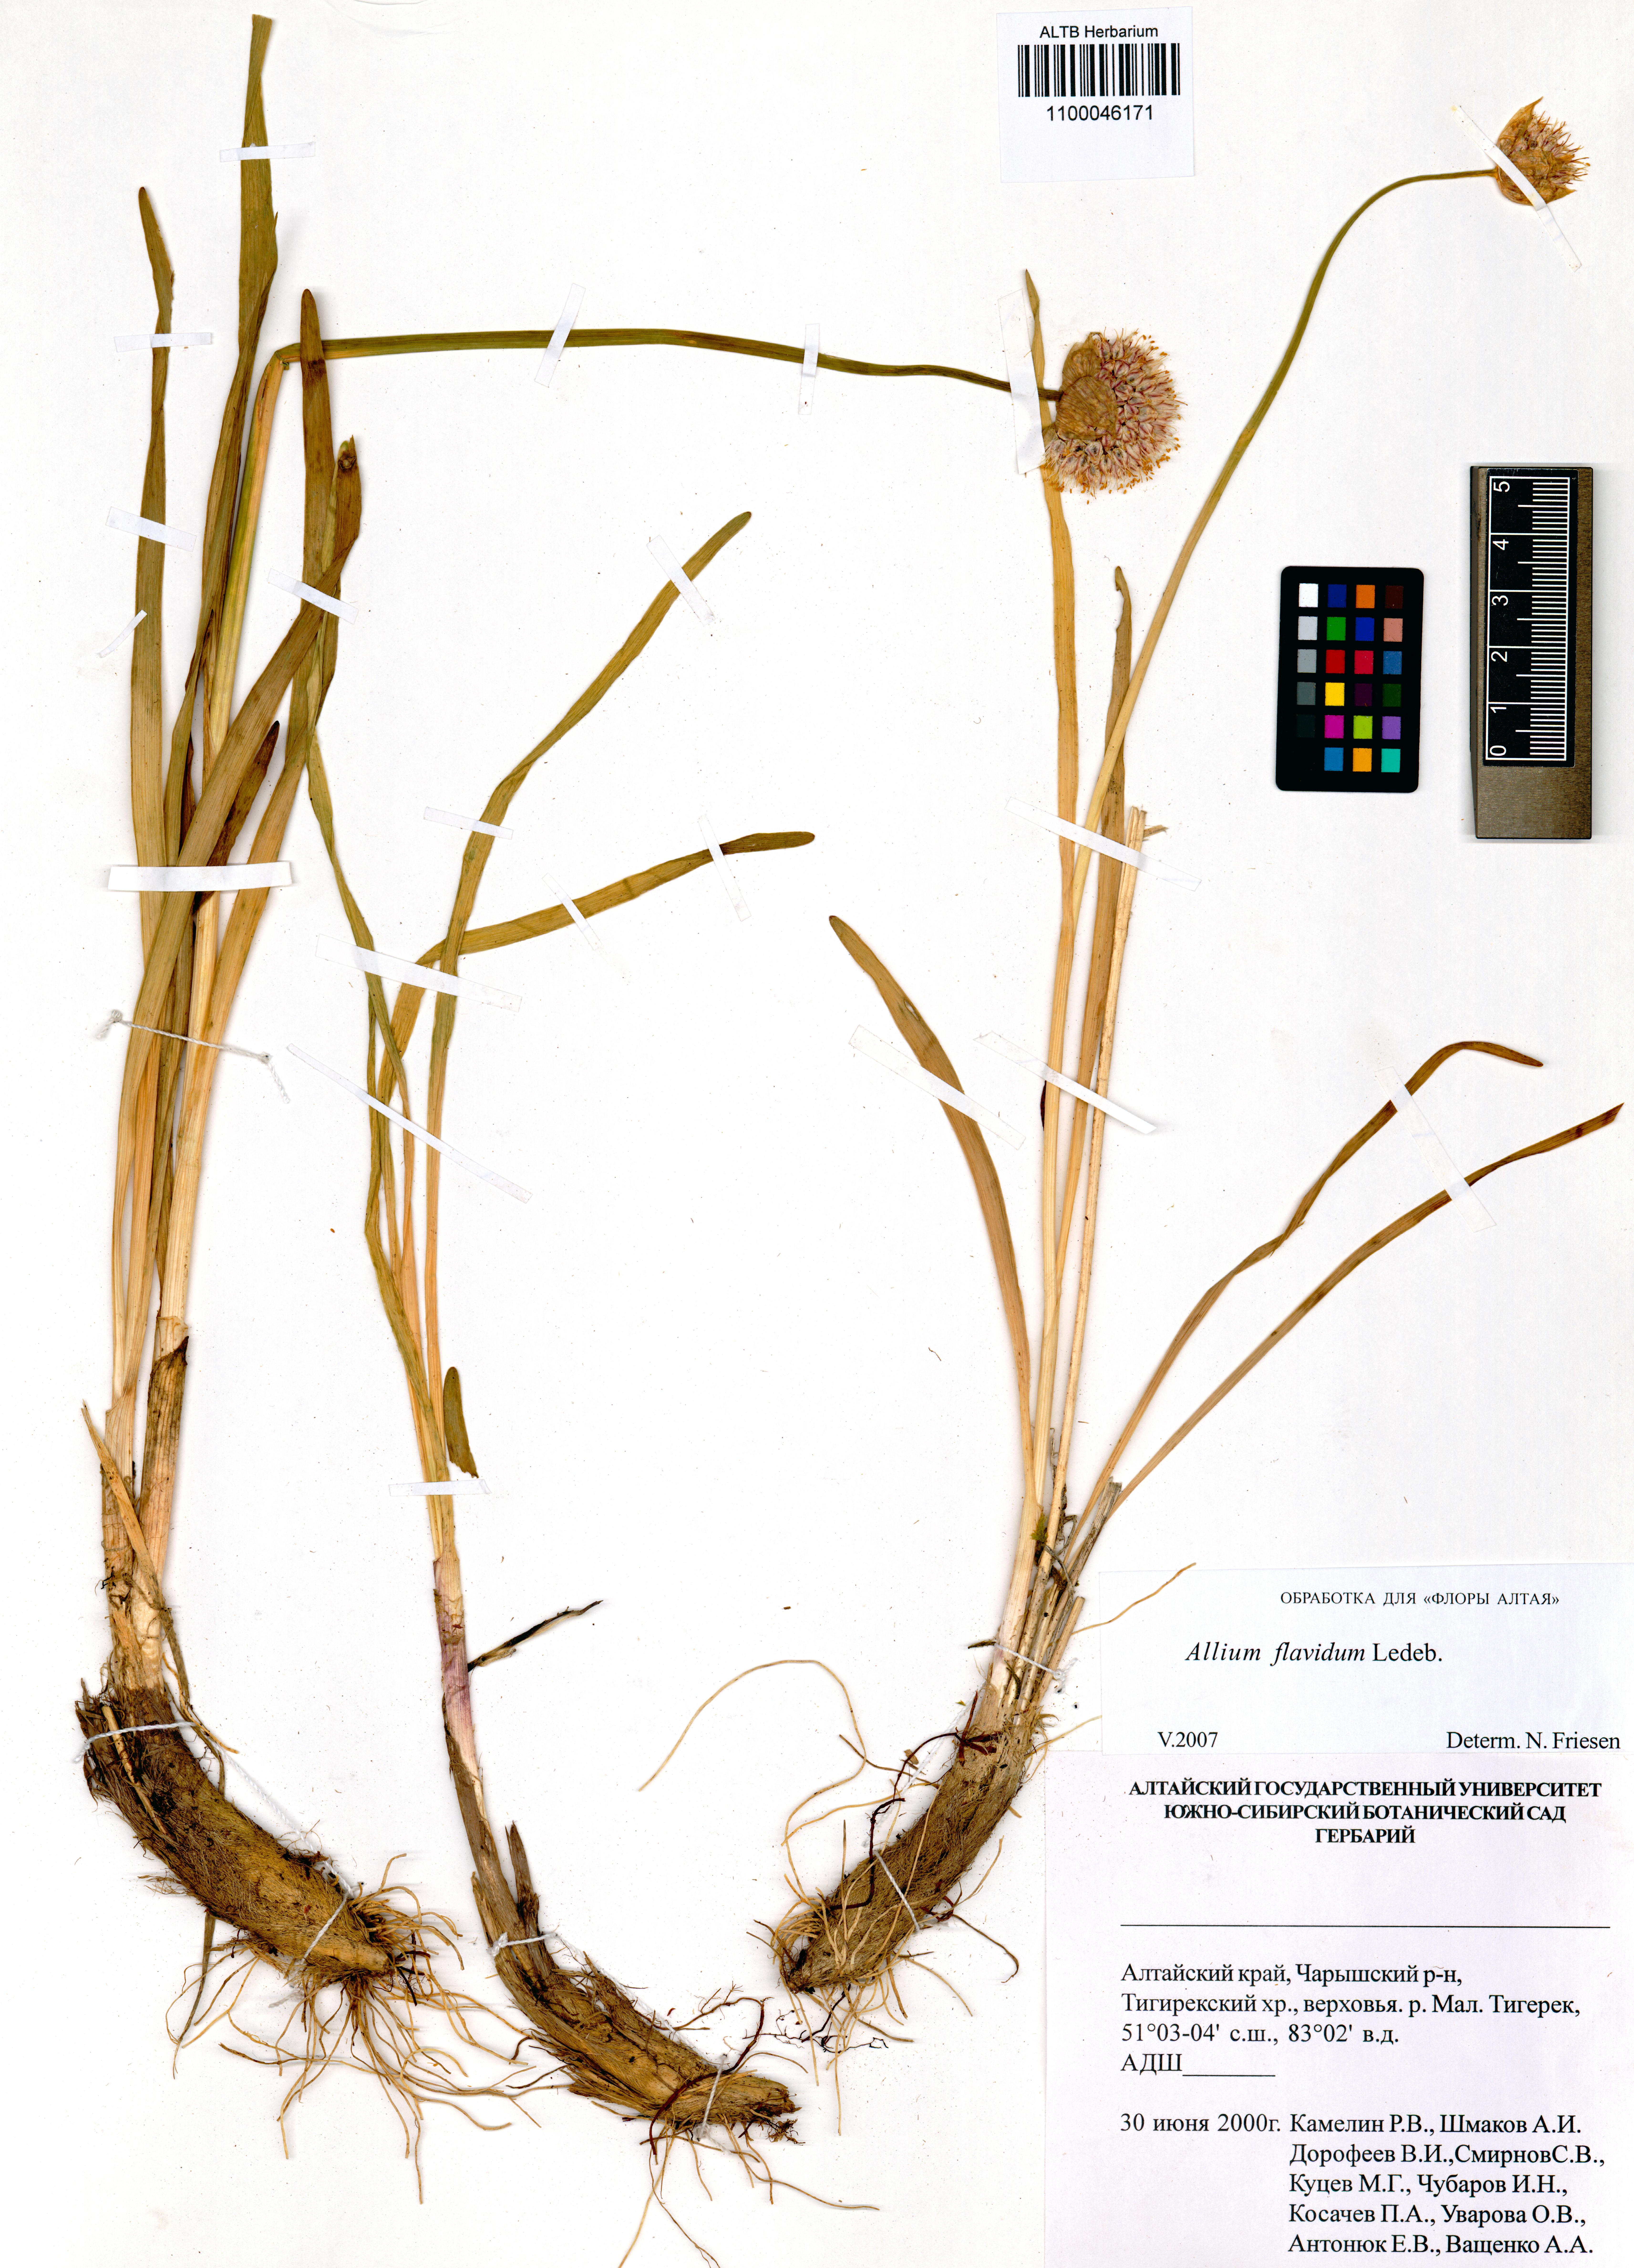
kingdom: Plantae
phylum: Tracheophyta
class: Liliopsida
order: Asparagales
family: Amaryllidaceae
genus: Allium
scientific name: Allium flavidum
